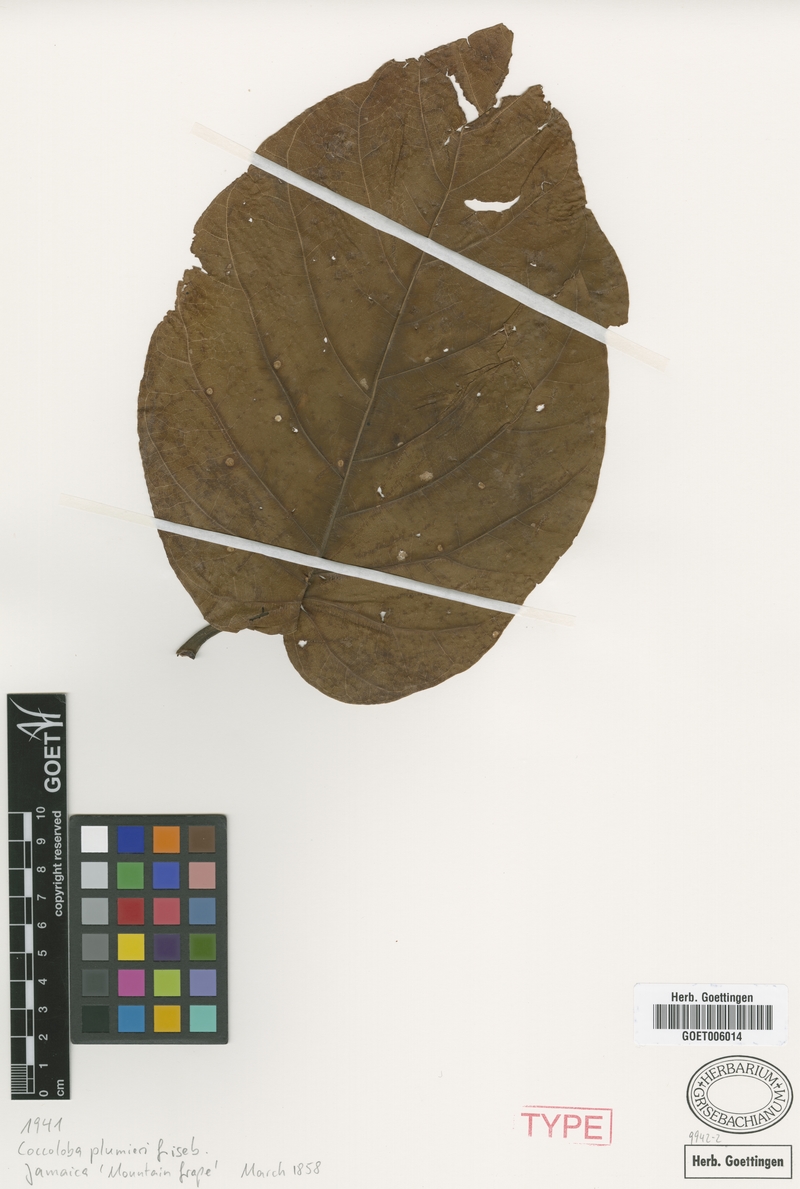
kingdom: Plantae
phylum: Tracheophyta
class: Magnoliopsida
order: Caryophyllales
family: Polygonaceae
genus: Coccoloba
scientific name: Coccoloba plumieri
